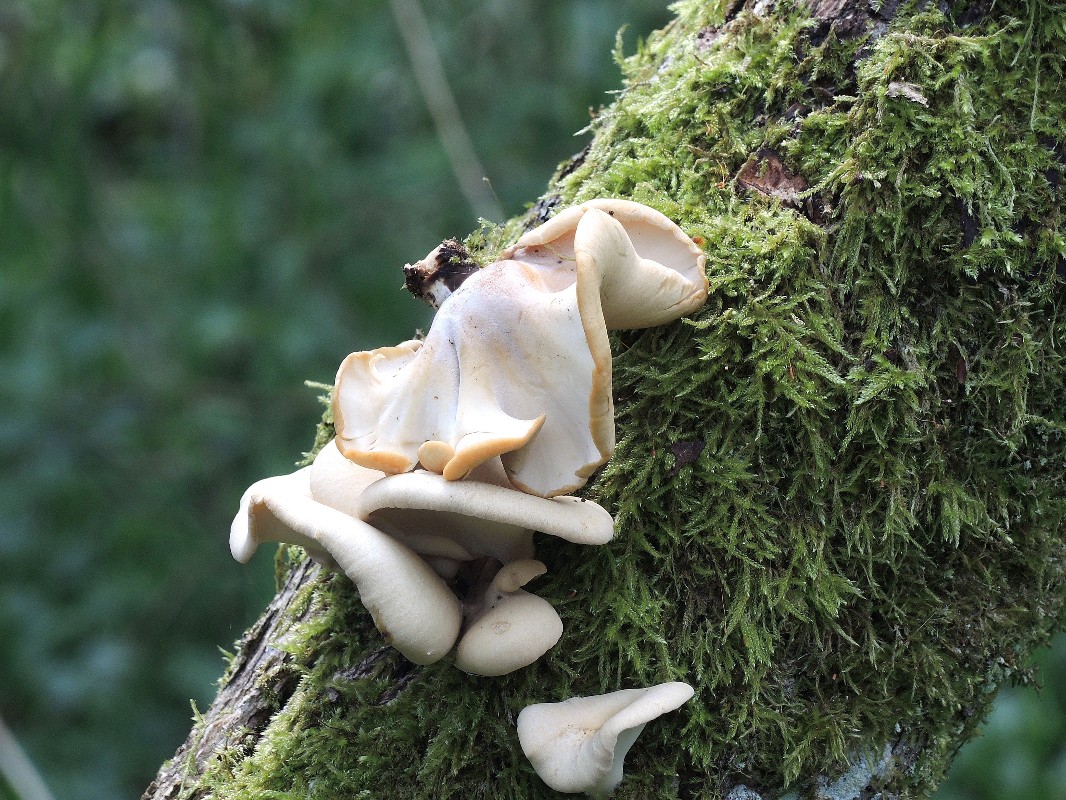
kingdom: Fungi
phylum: Basidiomycota
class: Agaricomycetes
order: Polyporales
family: Polyporaceae
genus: Cerioporus
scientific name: Cerioporus varius
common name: foranderlig stilkporesvamp
